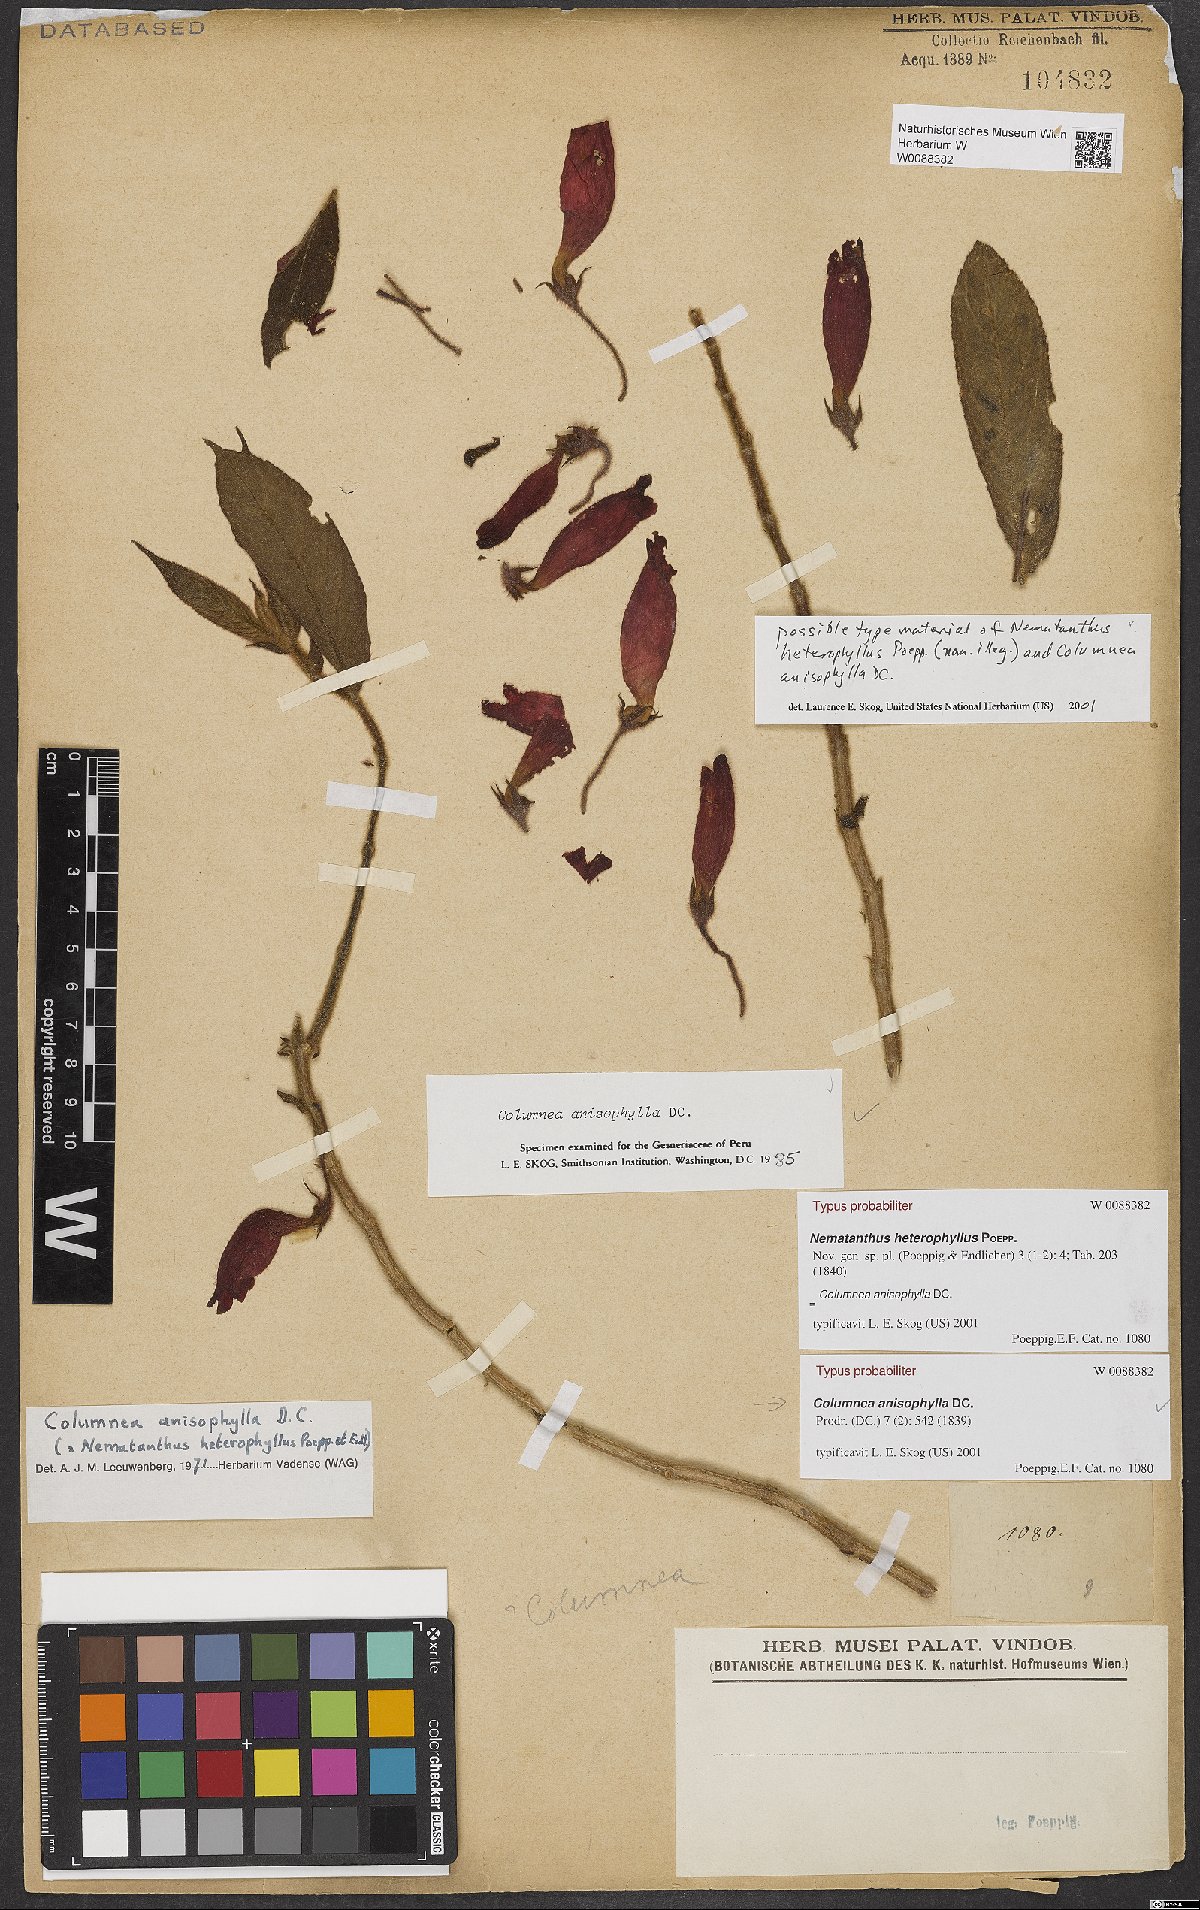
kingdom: Plantae
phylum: Tracheophyta
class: Magnoliopsida
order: Lamiales
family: Gesneriaceae
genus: Columnea
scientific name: Columnea anisophylla
